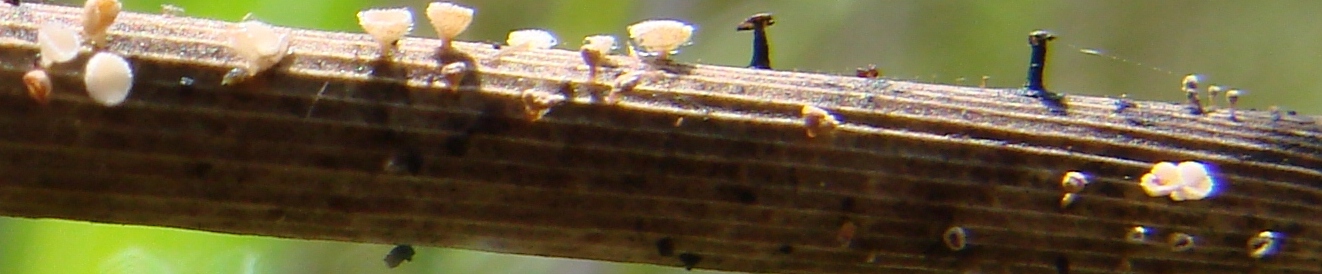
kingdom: Fungi
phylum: Ascomycota
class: Leotiomycetes
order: Helotiales
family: Lachnaceae
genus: Lachnum
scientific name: Lachnum tenuipilosum
